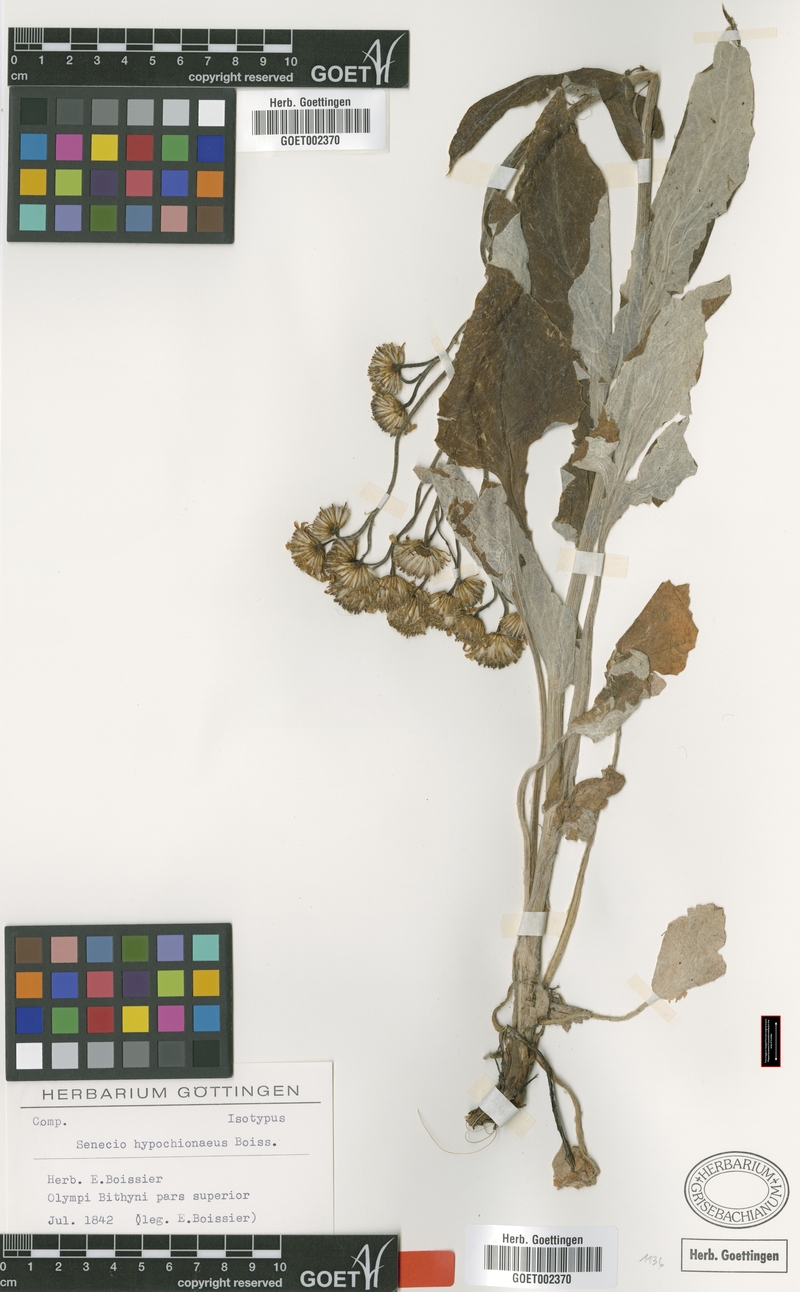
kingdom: Plantae
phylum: Tracheophyta
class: Magnoliopsida
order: Asterales
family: Asteraceae
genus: Turanecio
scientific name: Turanecio hypochionaeus
